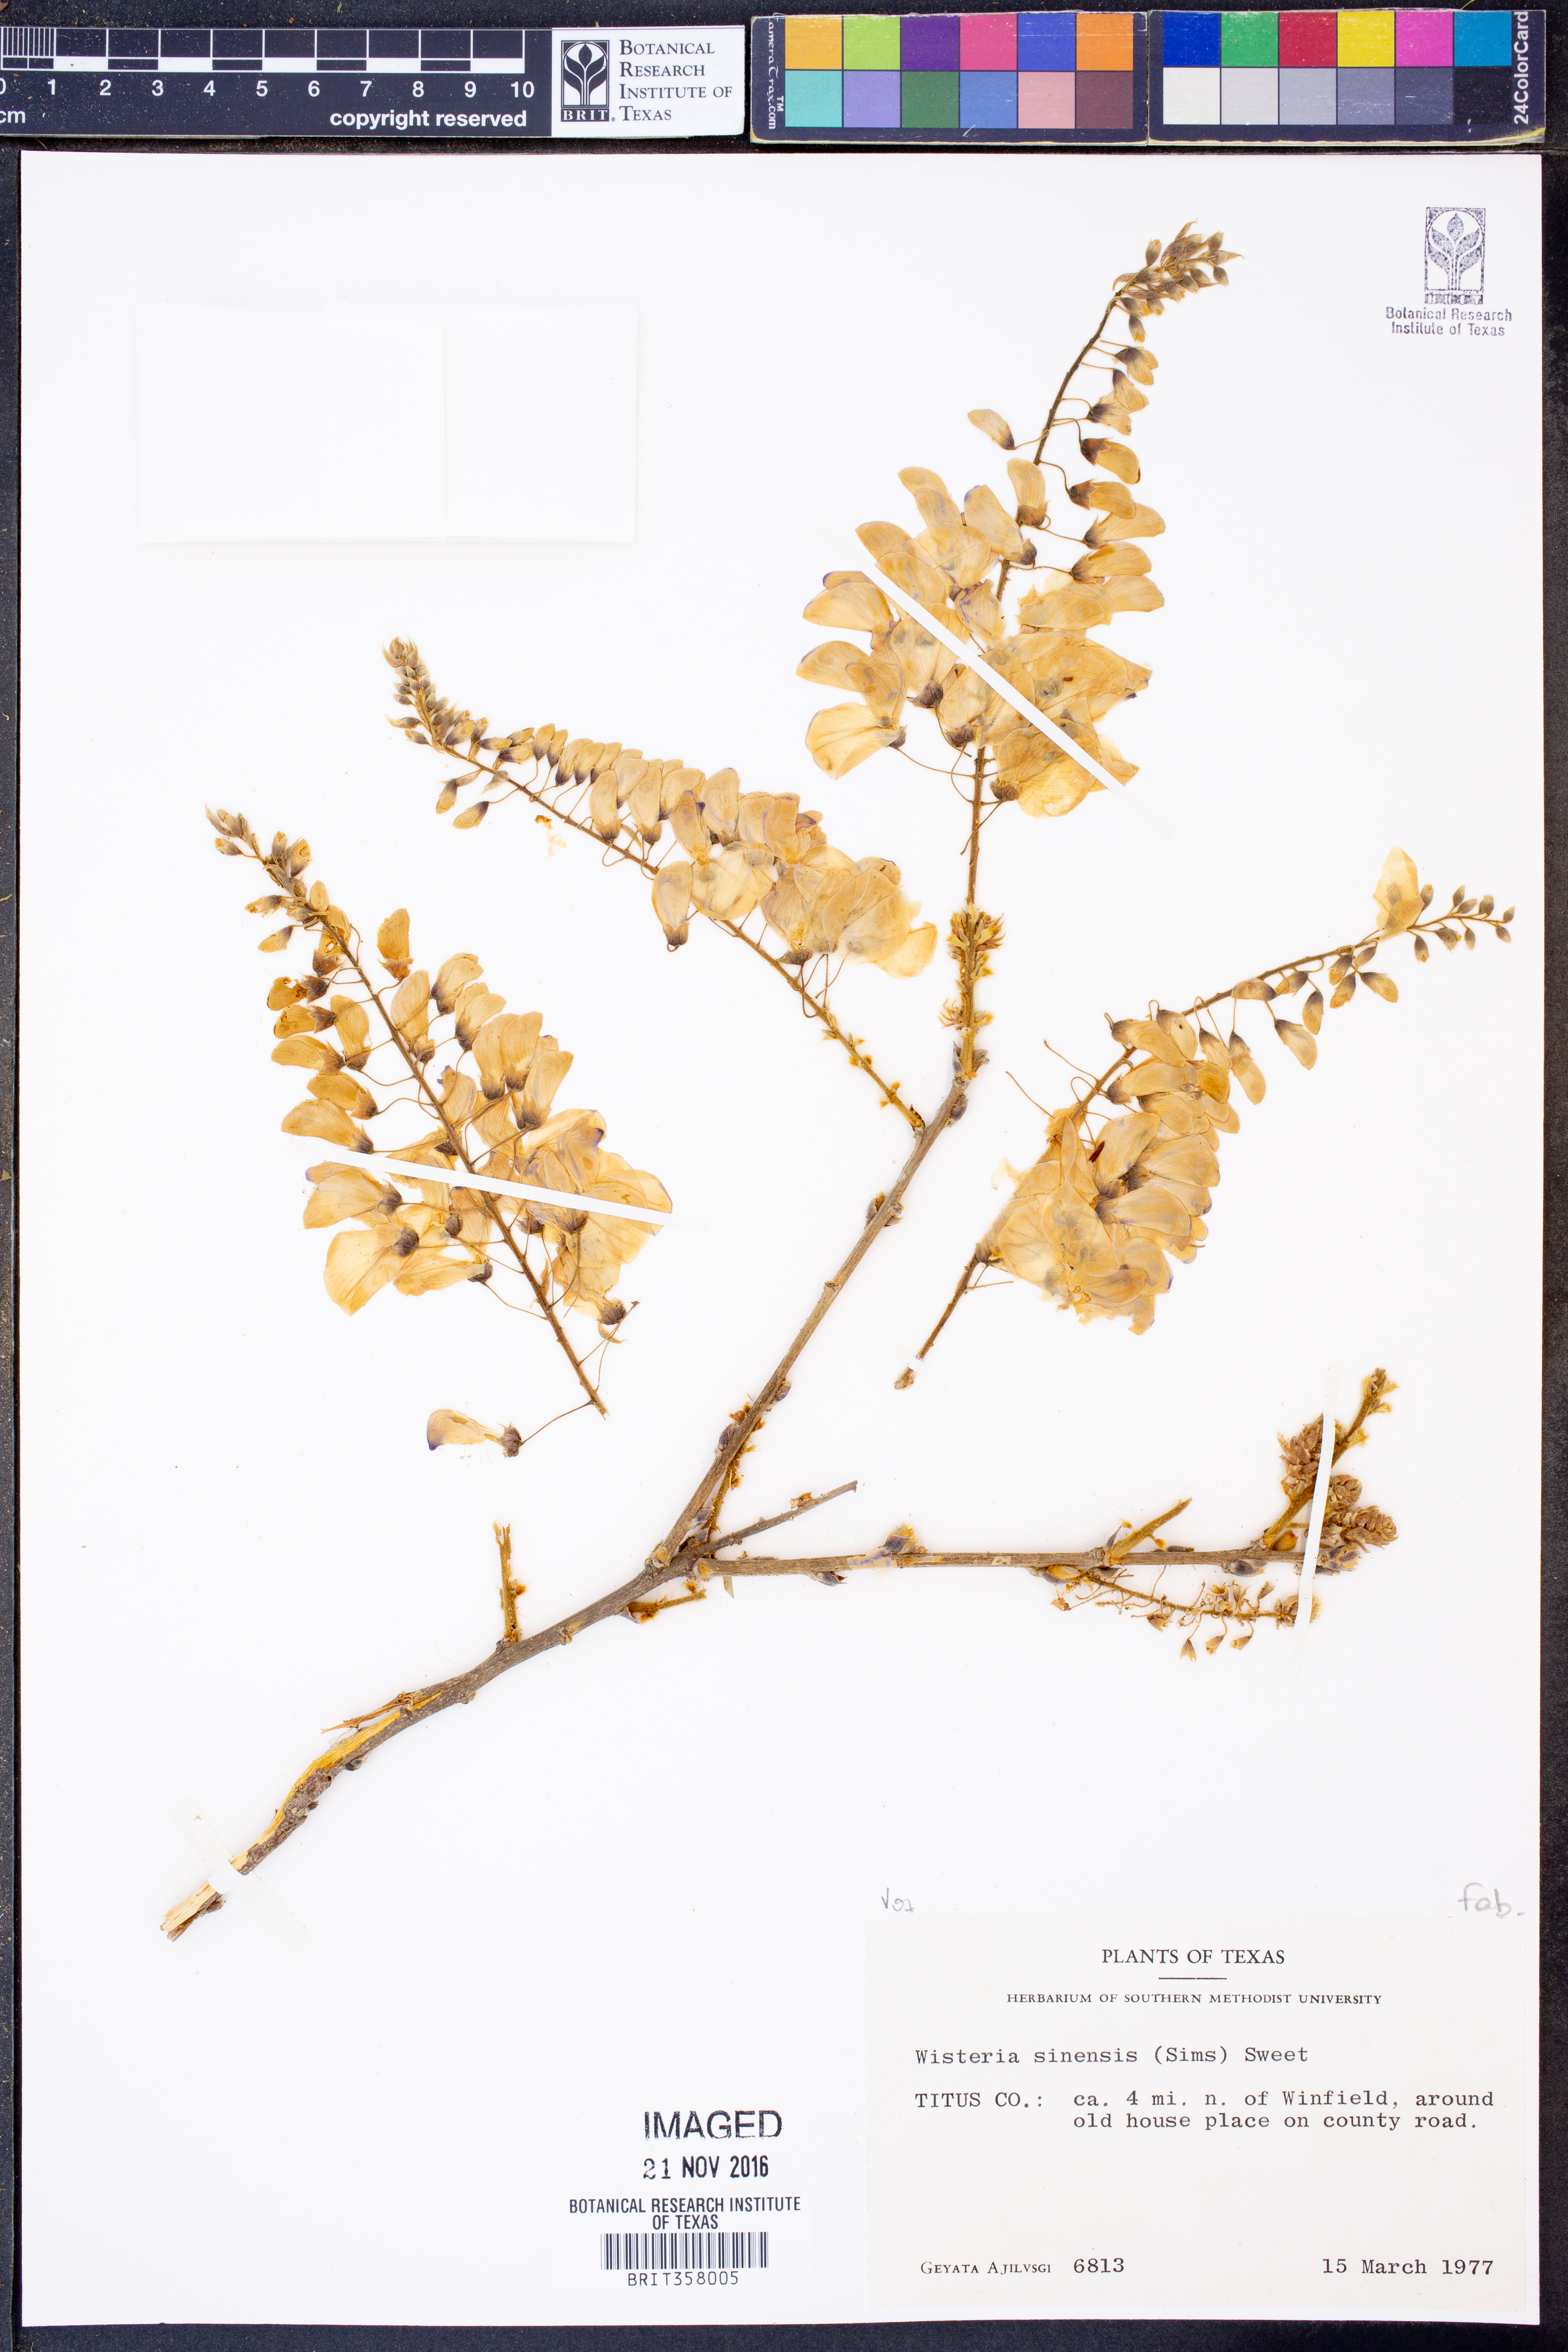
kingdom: Plantae
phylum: Tracheophyta
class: Magnoliopsida
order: Fabales
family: Fabaceae
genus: Wisteria
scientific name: Wisteria sinensis
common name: Chinese wisteria
